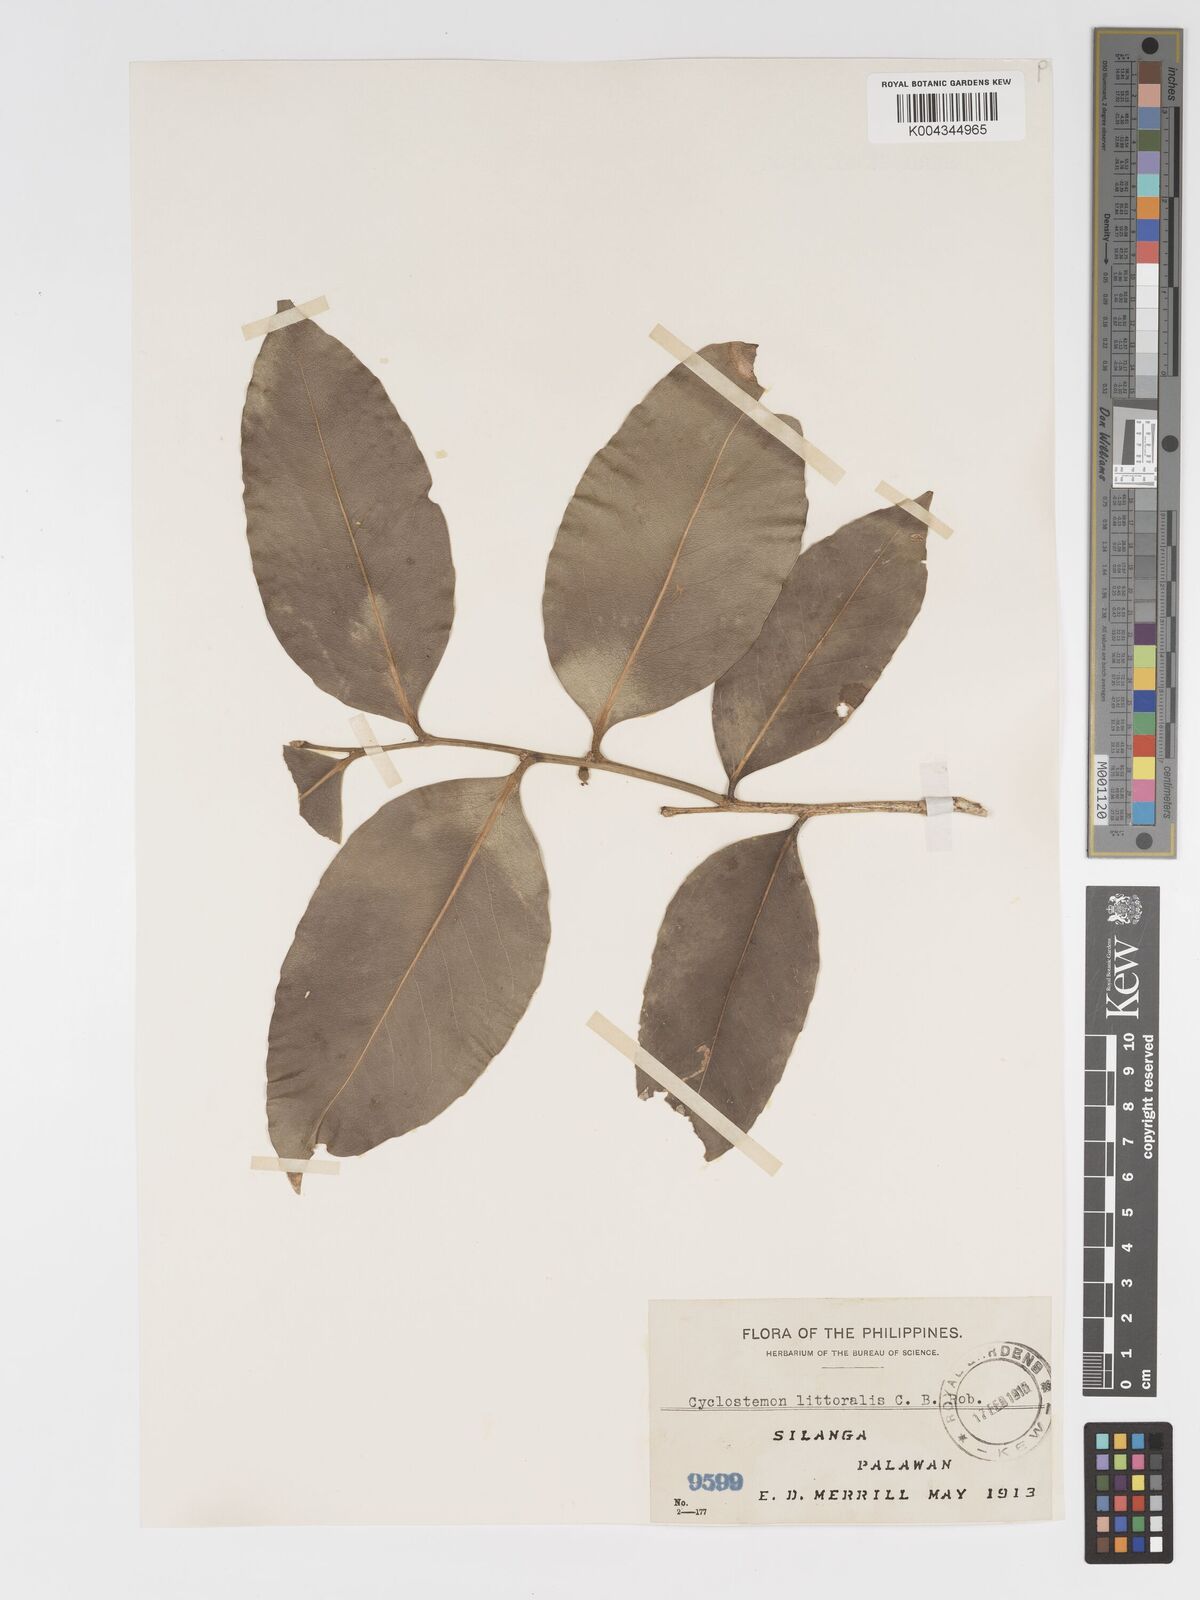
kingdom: Plantae
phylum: Tracheophyta
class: Magnoliopsida
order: Malpighiales
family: Putranjivaceae
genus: Drypetes
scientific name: Drypetes littoralis
